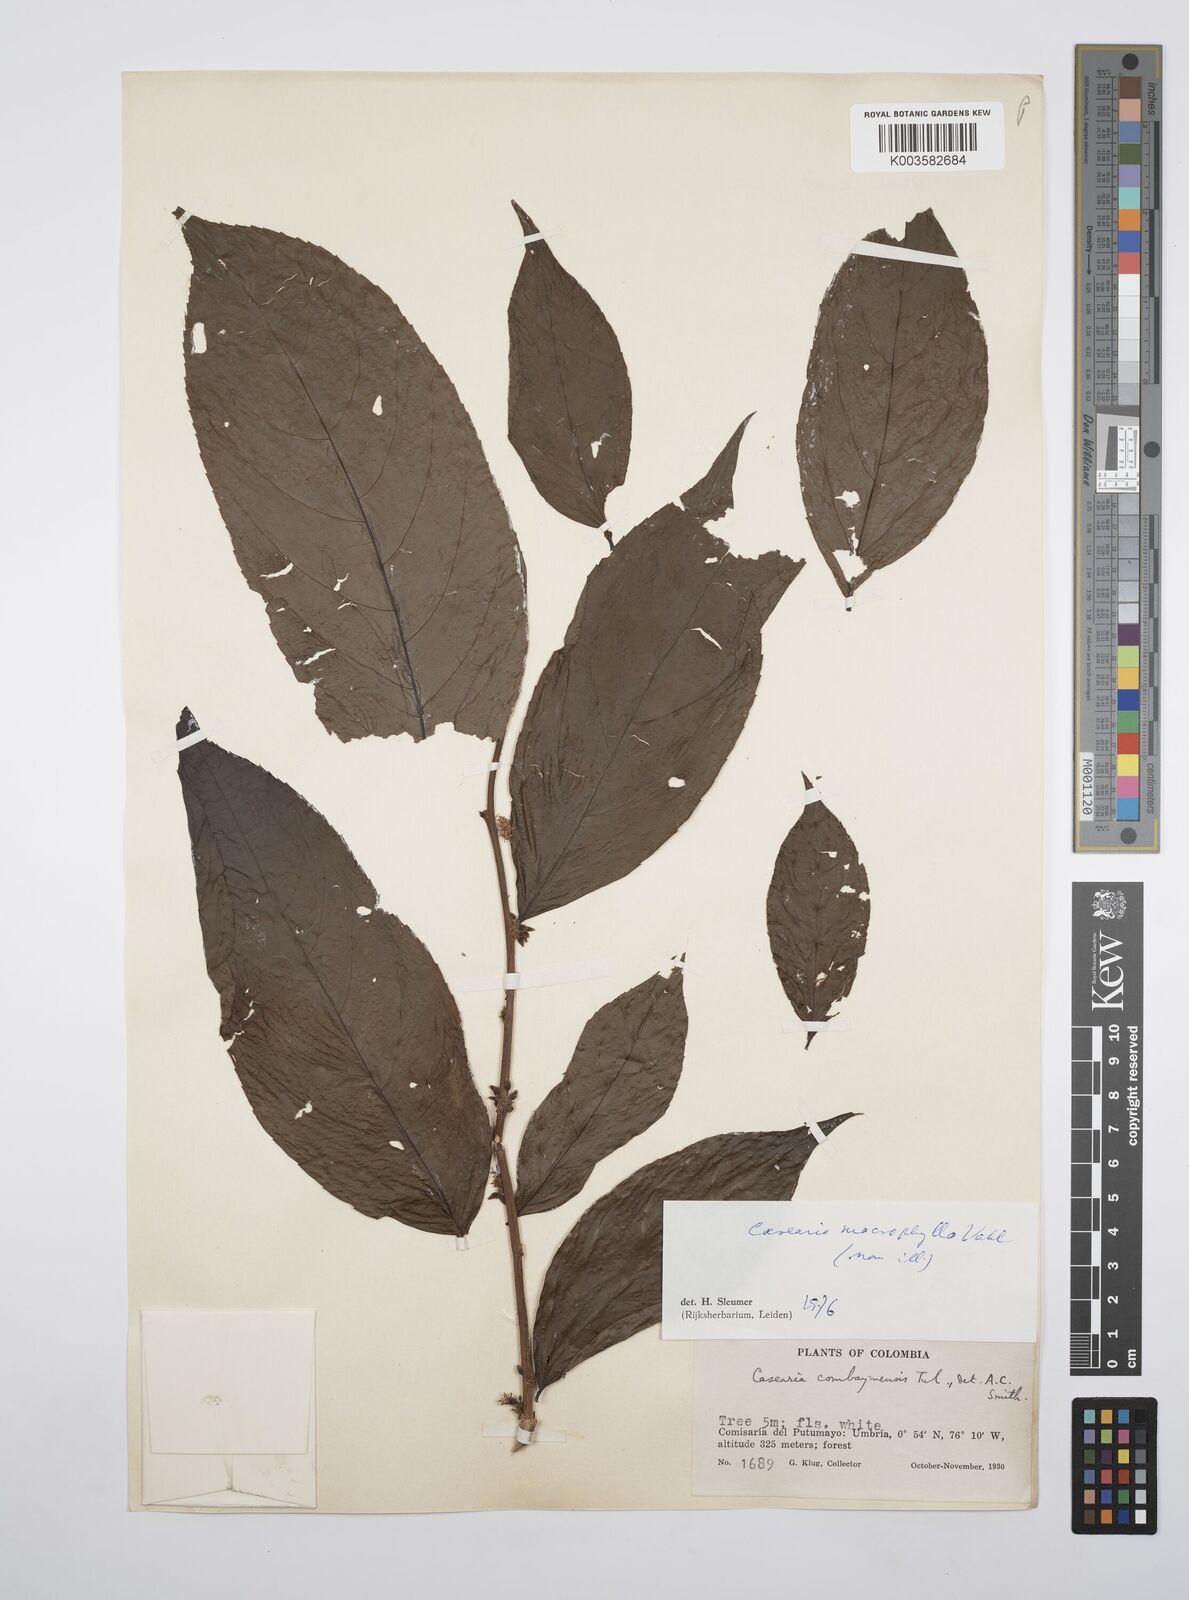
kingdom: Plantae
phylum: Tracheophyta
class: Magnoliopsida
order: Malpighiales
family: Salicaceae
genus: Casearia
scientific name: Casearia pitumba
